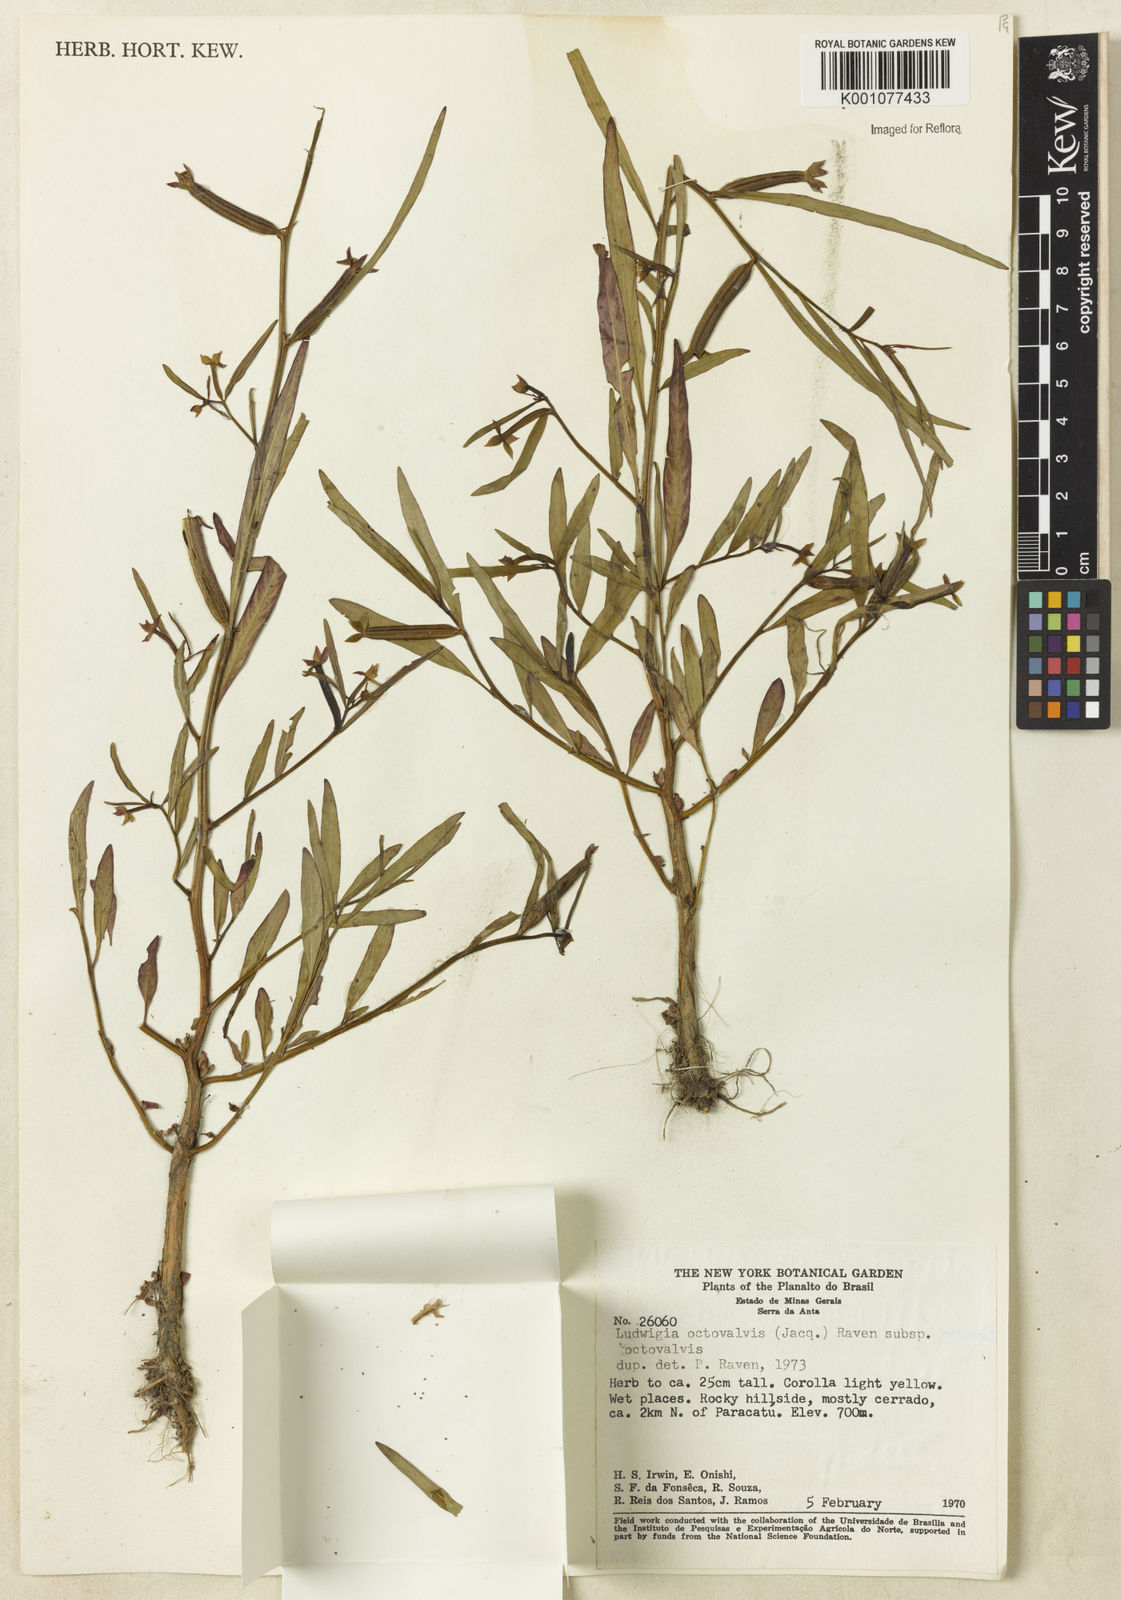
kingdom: Plantae
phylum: Tracheophyta
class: Magnoliopsida
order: Myrtales
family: Onagraceae
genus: Ludwigia
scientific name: Ludwigia octovalvis
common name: Water-primrose
